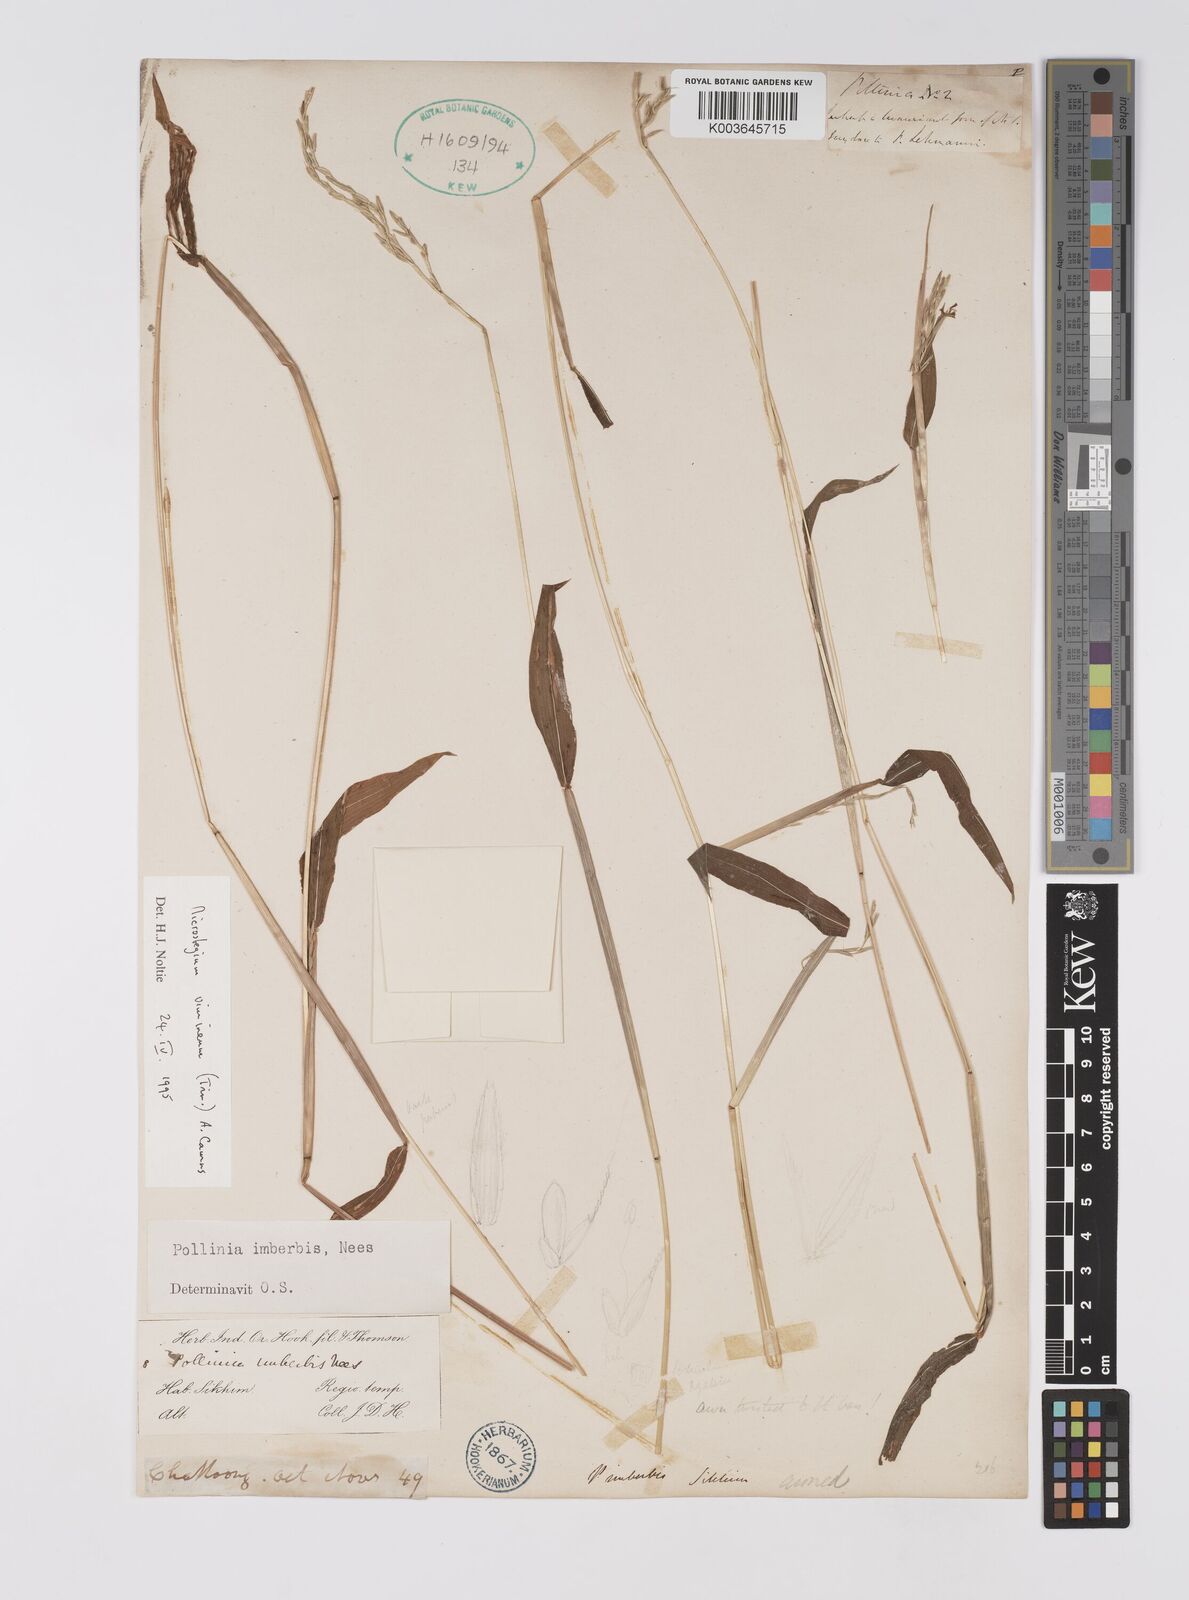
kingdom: Plantae
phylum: Tracheophyta
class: Liliopsida
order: Poales
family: Poaceae
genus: Microstegium
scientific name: Microstegium vimineum
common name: Japanese stiltgrass
